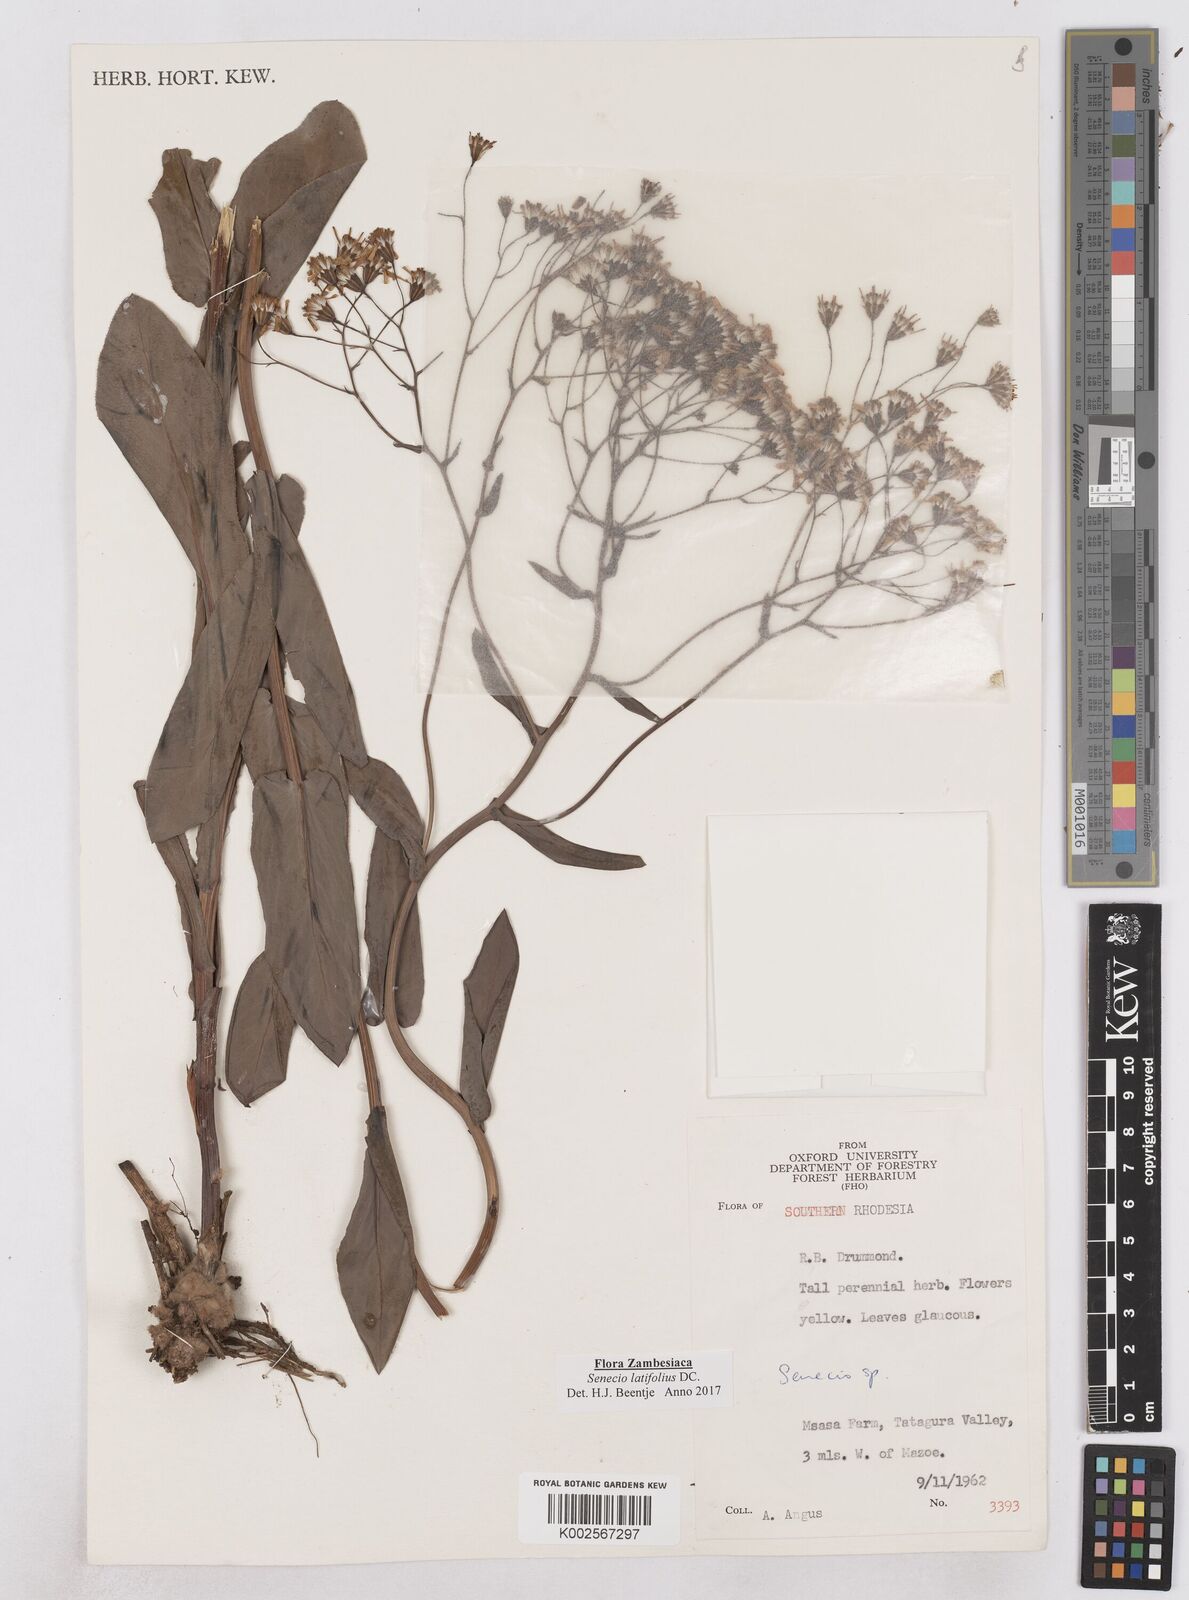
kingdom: Plantae
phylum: Tracheophyta
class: Magnoliopsida
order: Asterales
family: Asteraceae
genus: Senecio
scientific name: Senecio latifolius
